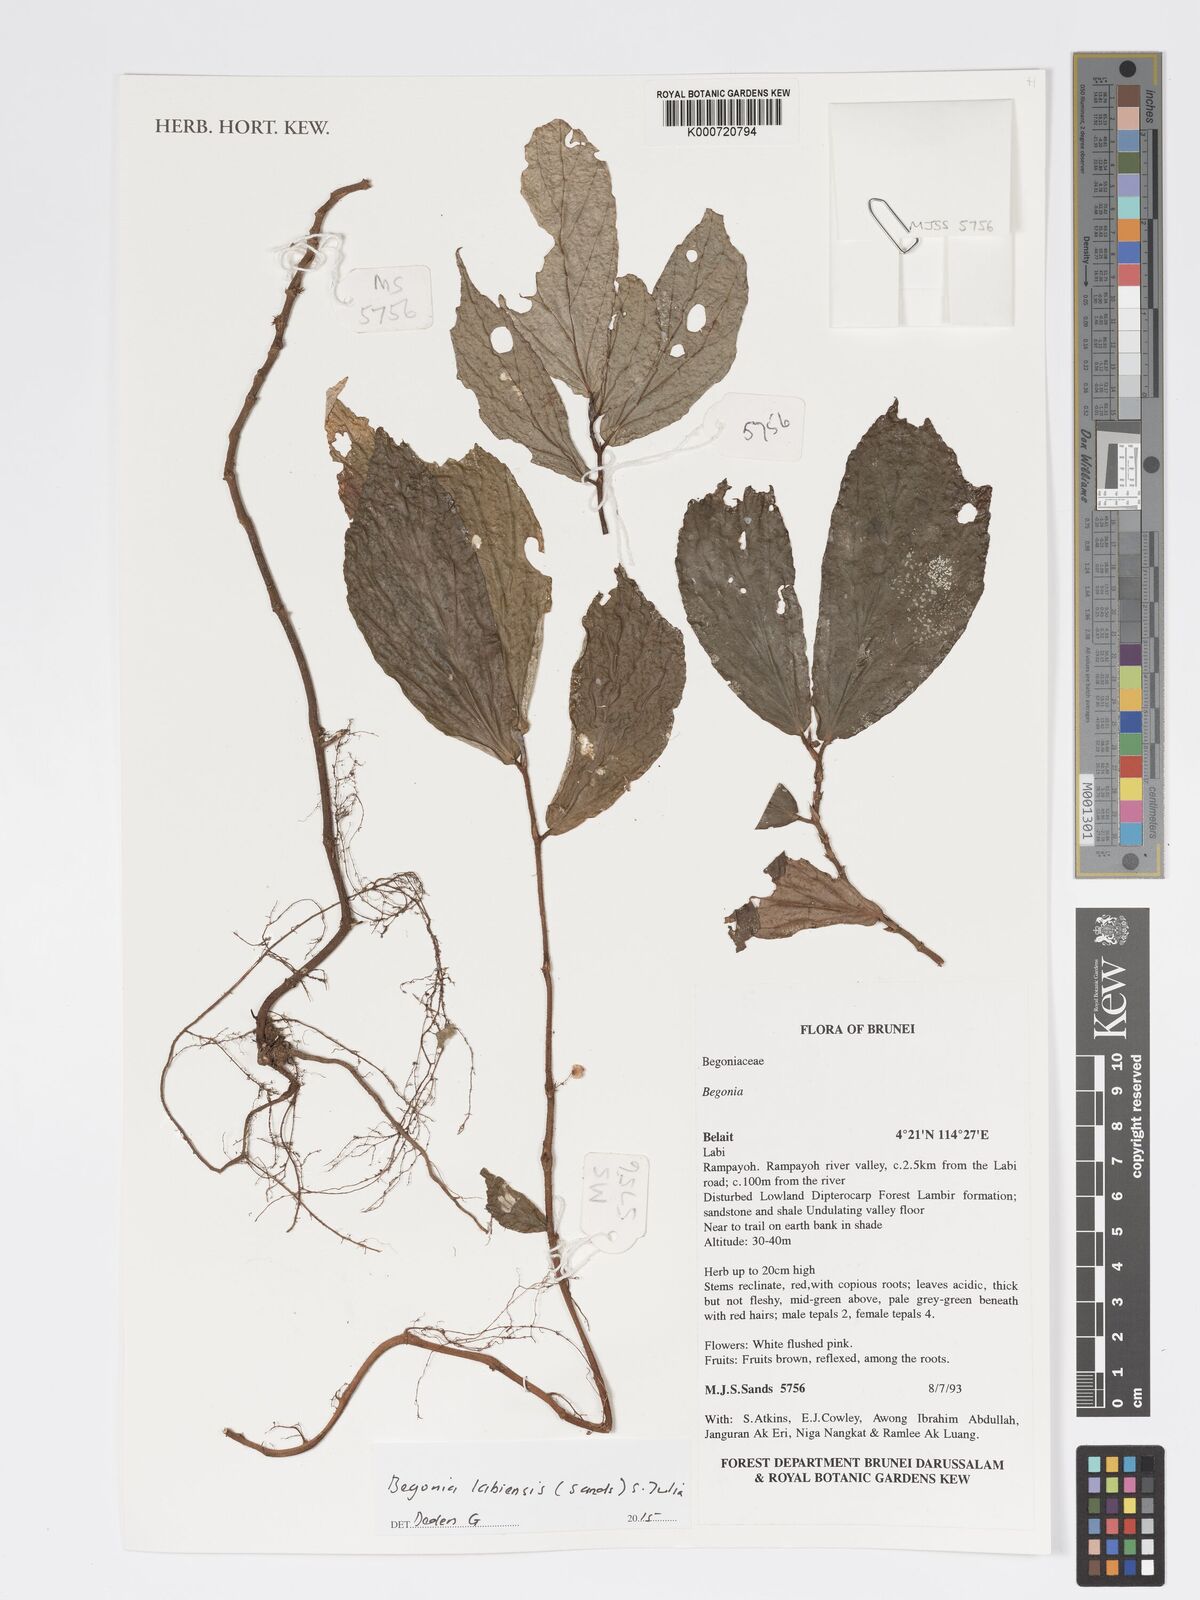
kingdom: Plantae
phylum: Tracheophyta
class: Magnoliopsida
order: Cucurbitales
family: Begoniaceae
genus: Begonia
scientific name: Begonia labiensis
